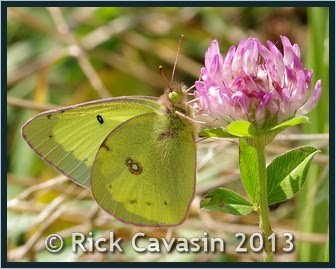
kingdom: Animalia
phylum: Arthropoda
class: Insecta
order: Lepidoptera
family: Pieridae
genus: Colias
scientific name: Colias philodice
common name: Clouded Sulphur
